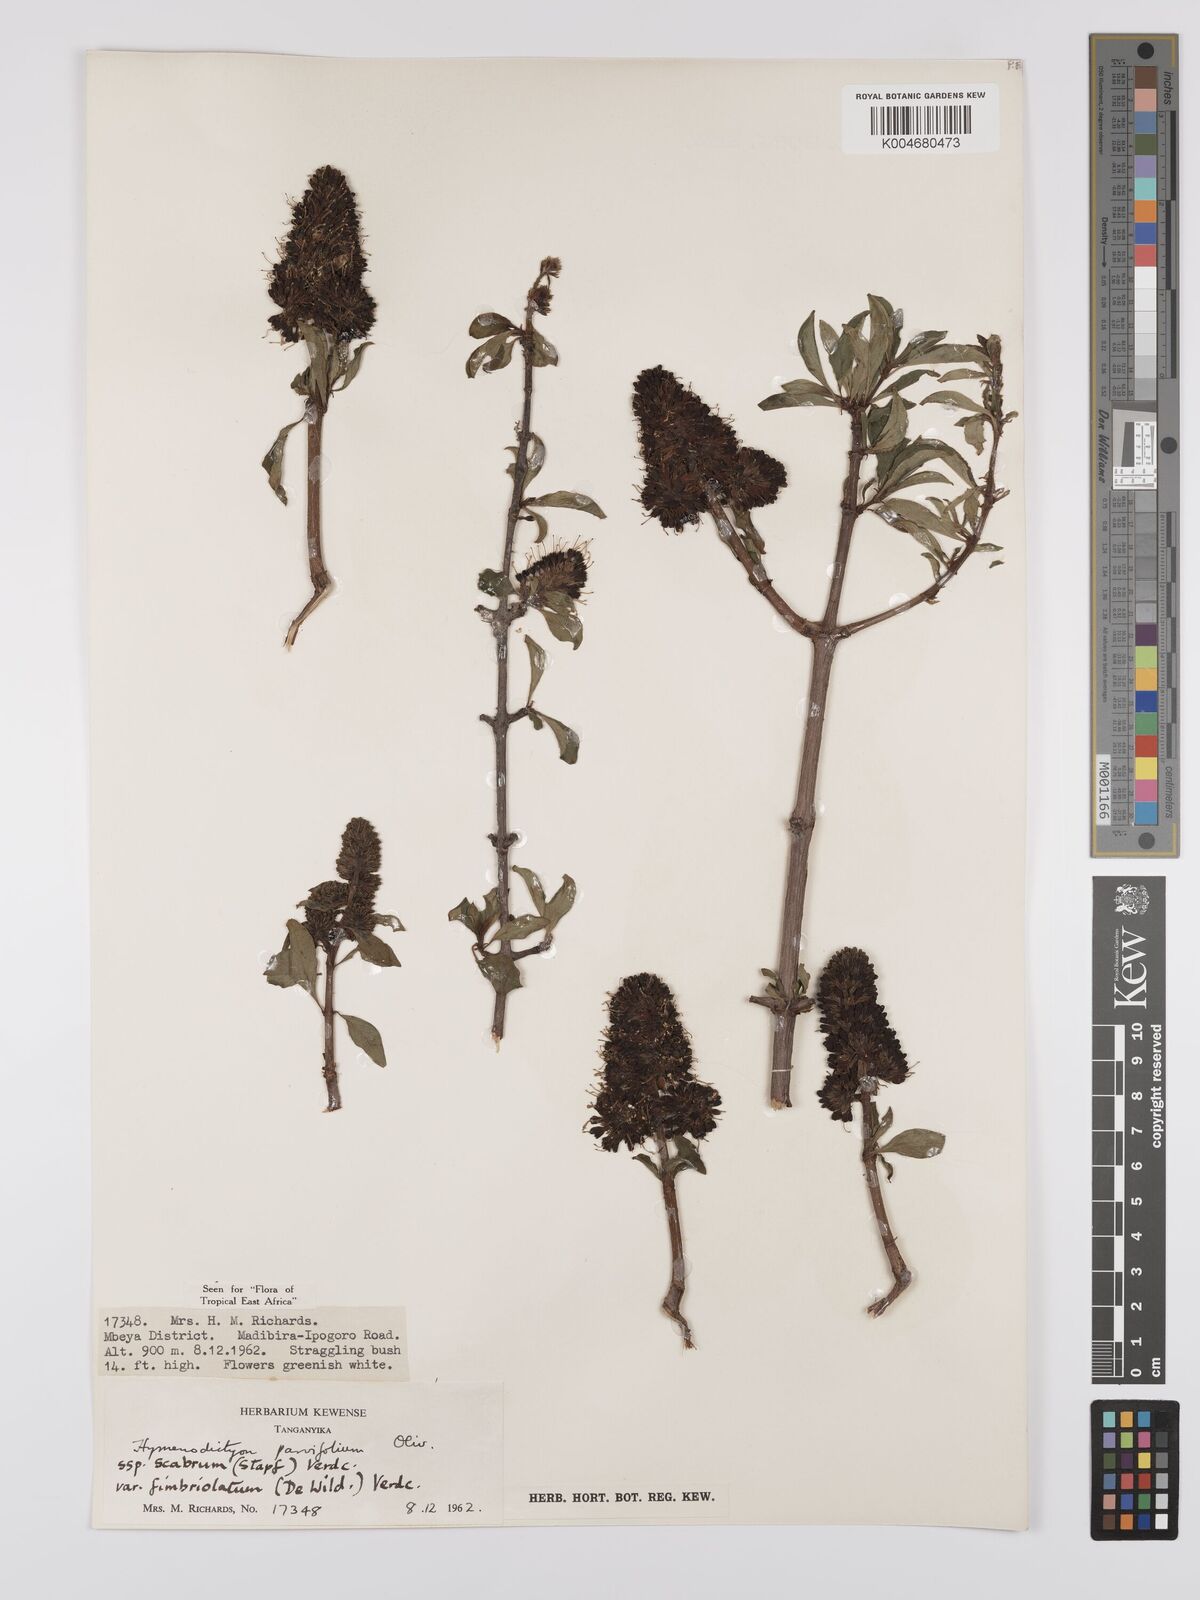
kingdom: Plantae
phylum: Tracheophyta
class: Magnoliopsida
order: Gentianales
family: Rubiaceae
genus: Hymenodictyon
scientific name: Hymenodictyon scabrum
